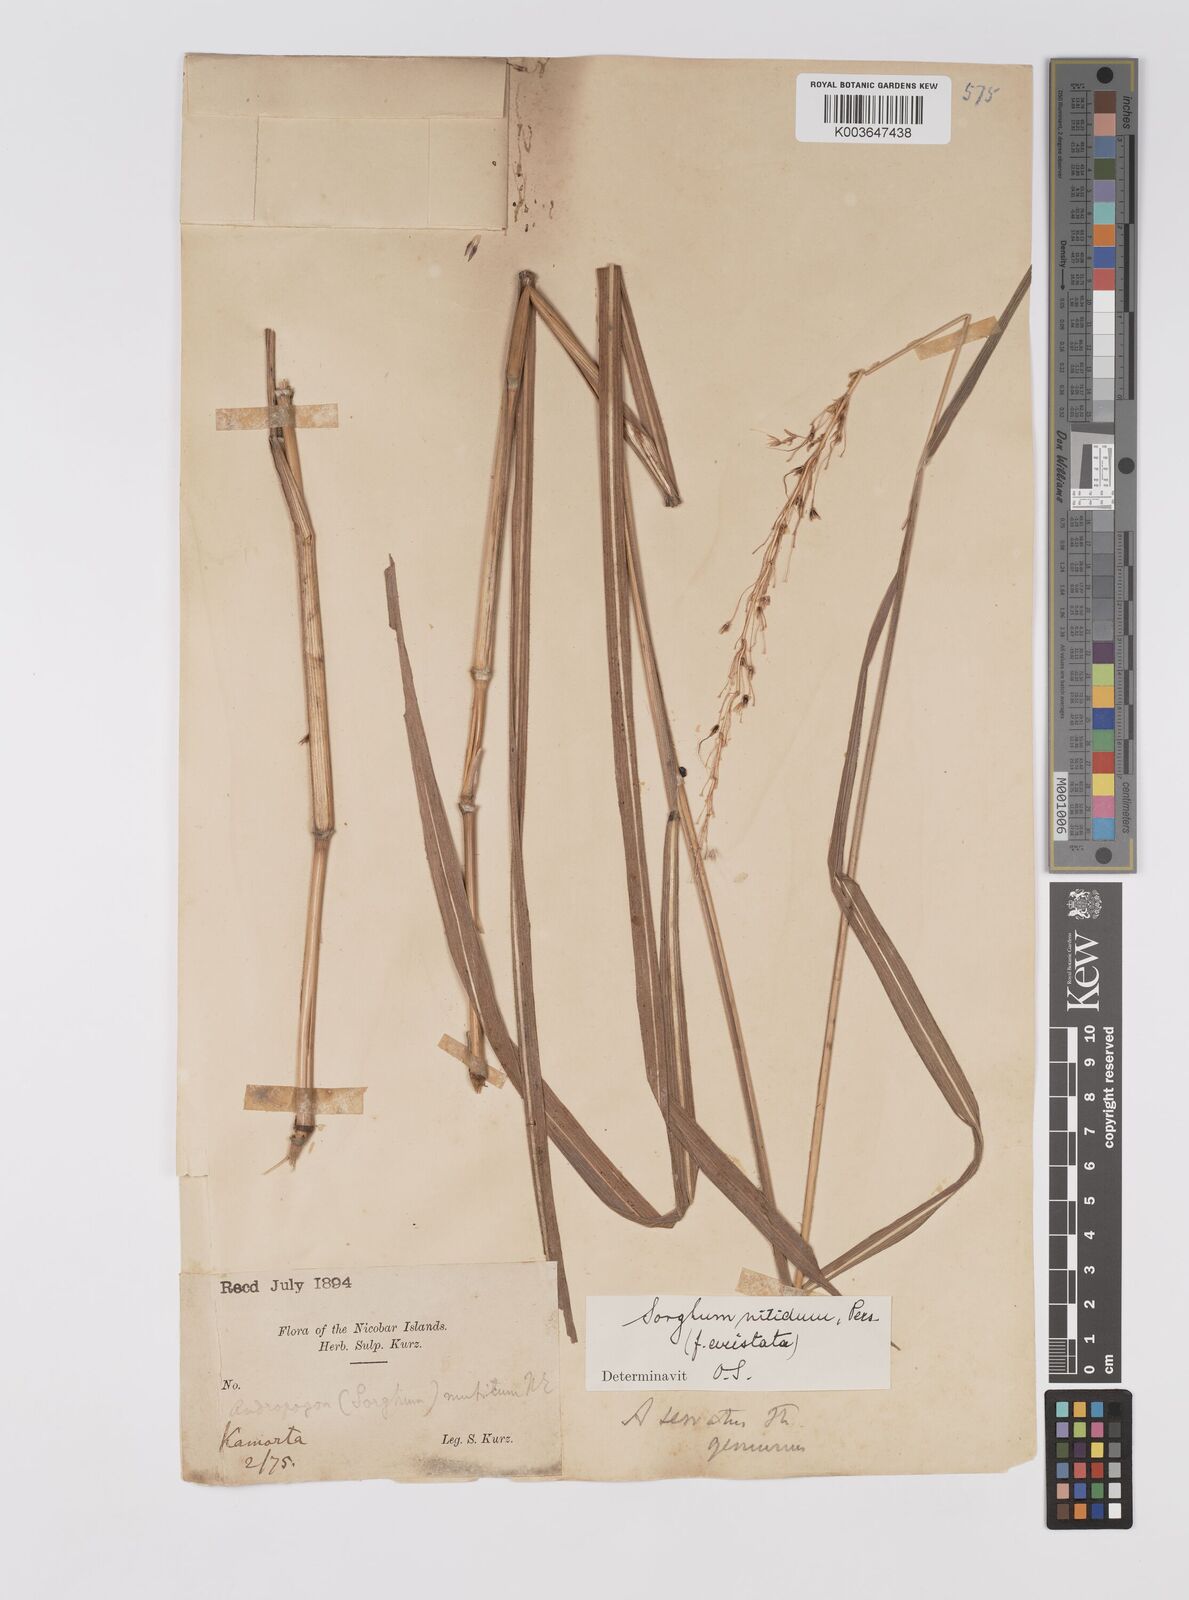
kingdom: Plantae
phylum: Tracheophyta
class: Liliopsida
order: Poales
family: Poaceae
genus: Sorghum
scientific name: Sorghum nitidum
